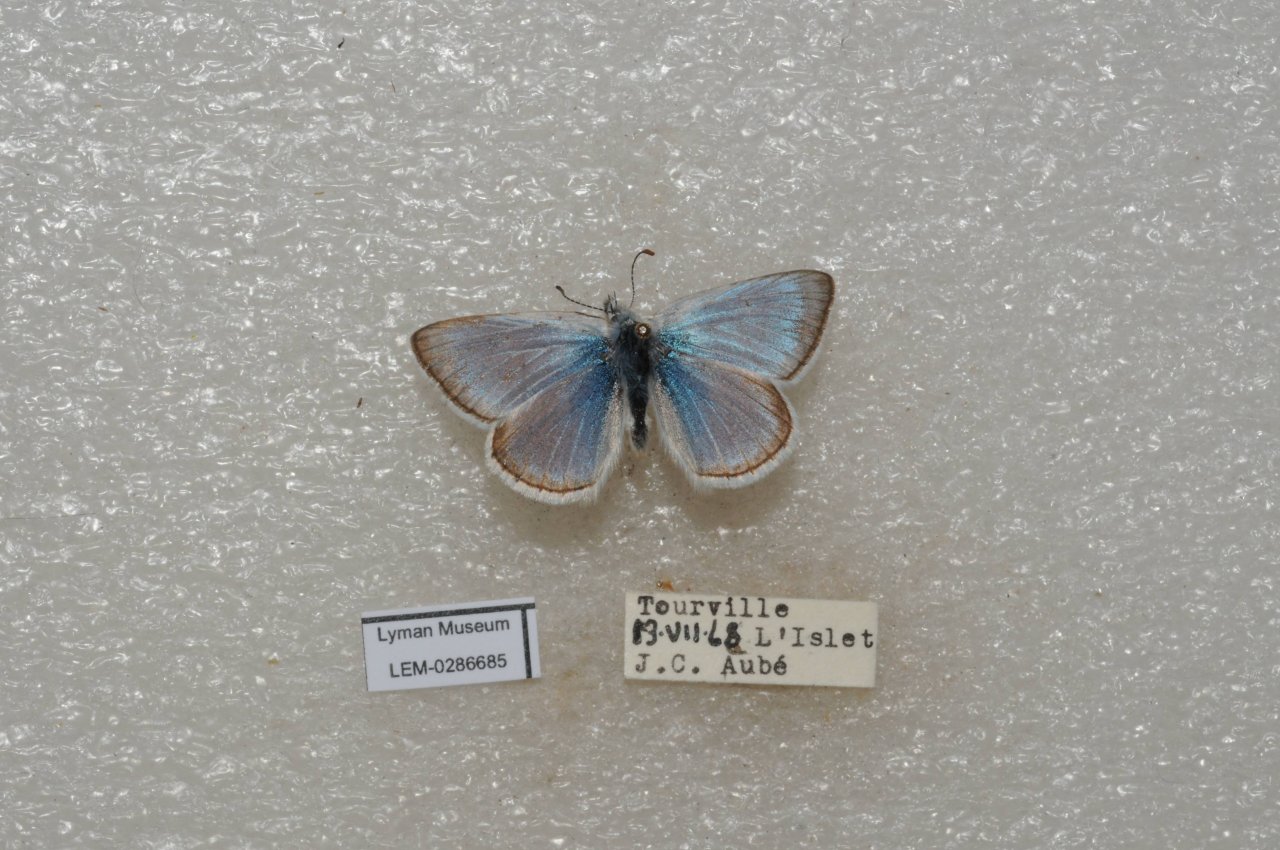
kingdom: Animalia
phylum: Arthropoda
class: Insecta
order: Lepidoptera
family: Lycaenidae
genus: Plebejus
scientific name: Plebejus saepiolus
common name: Greenish Blue
